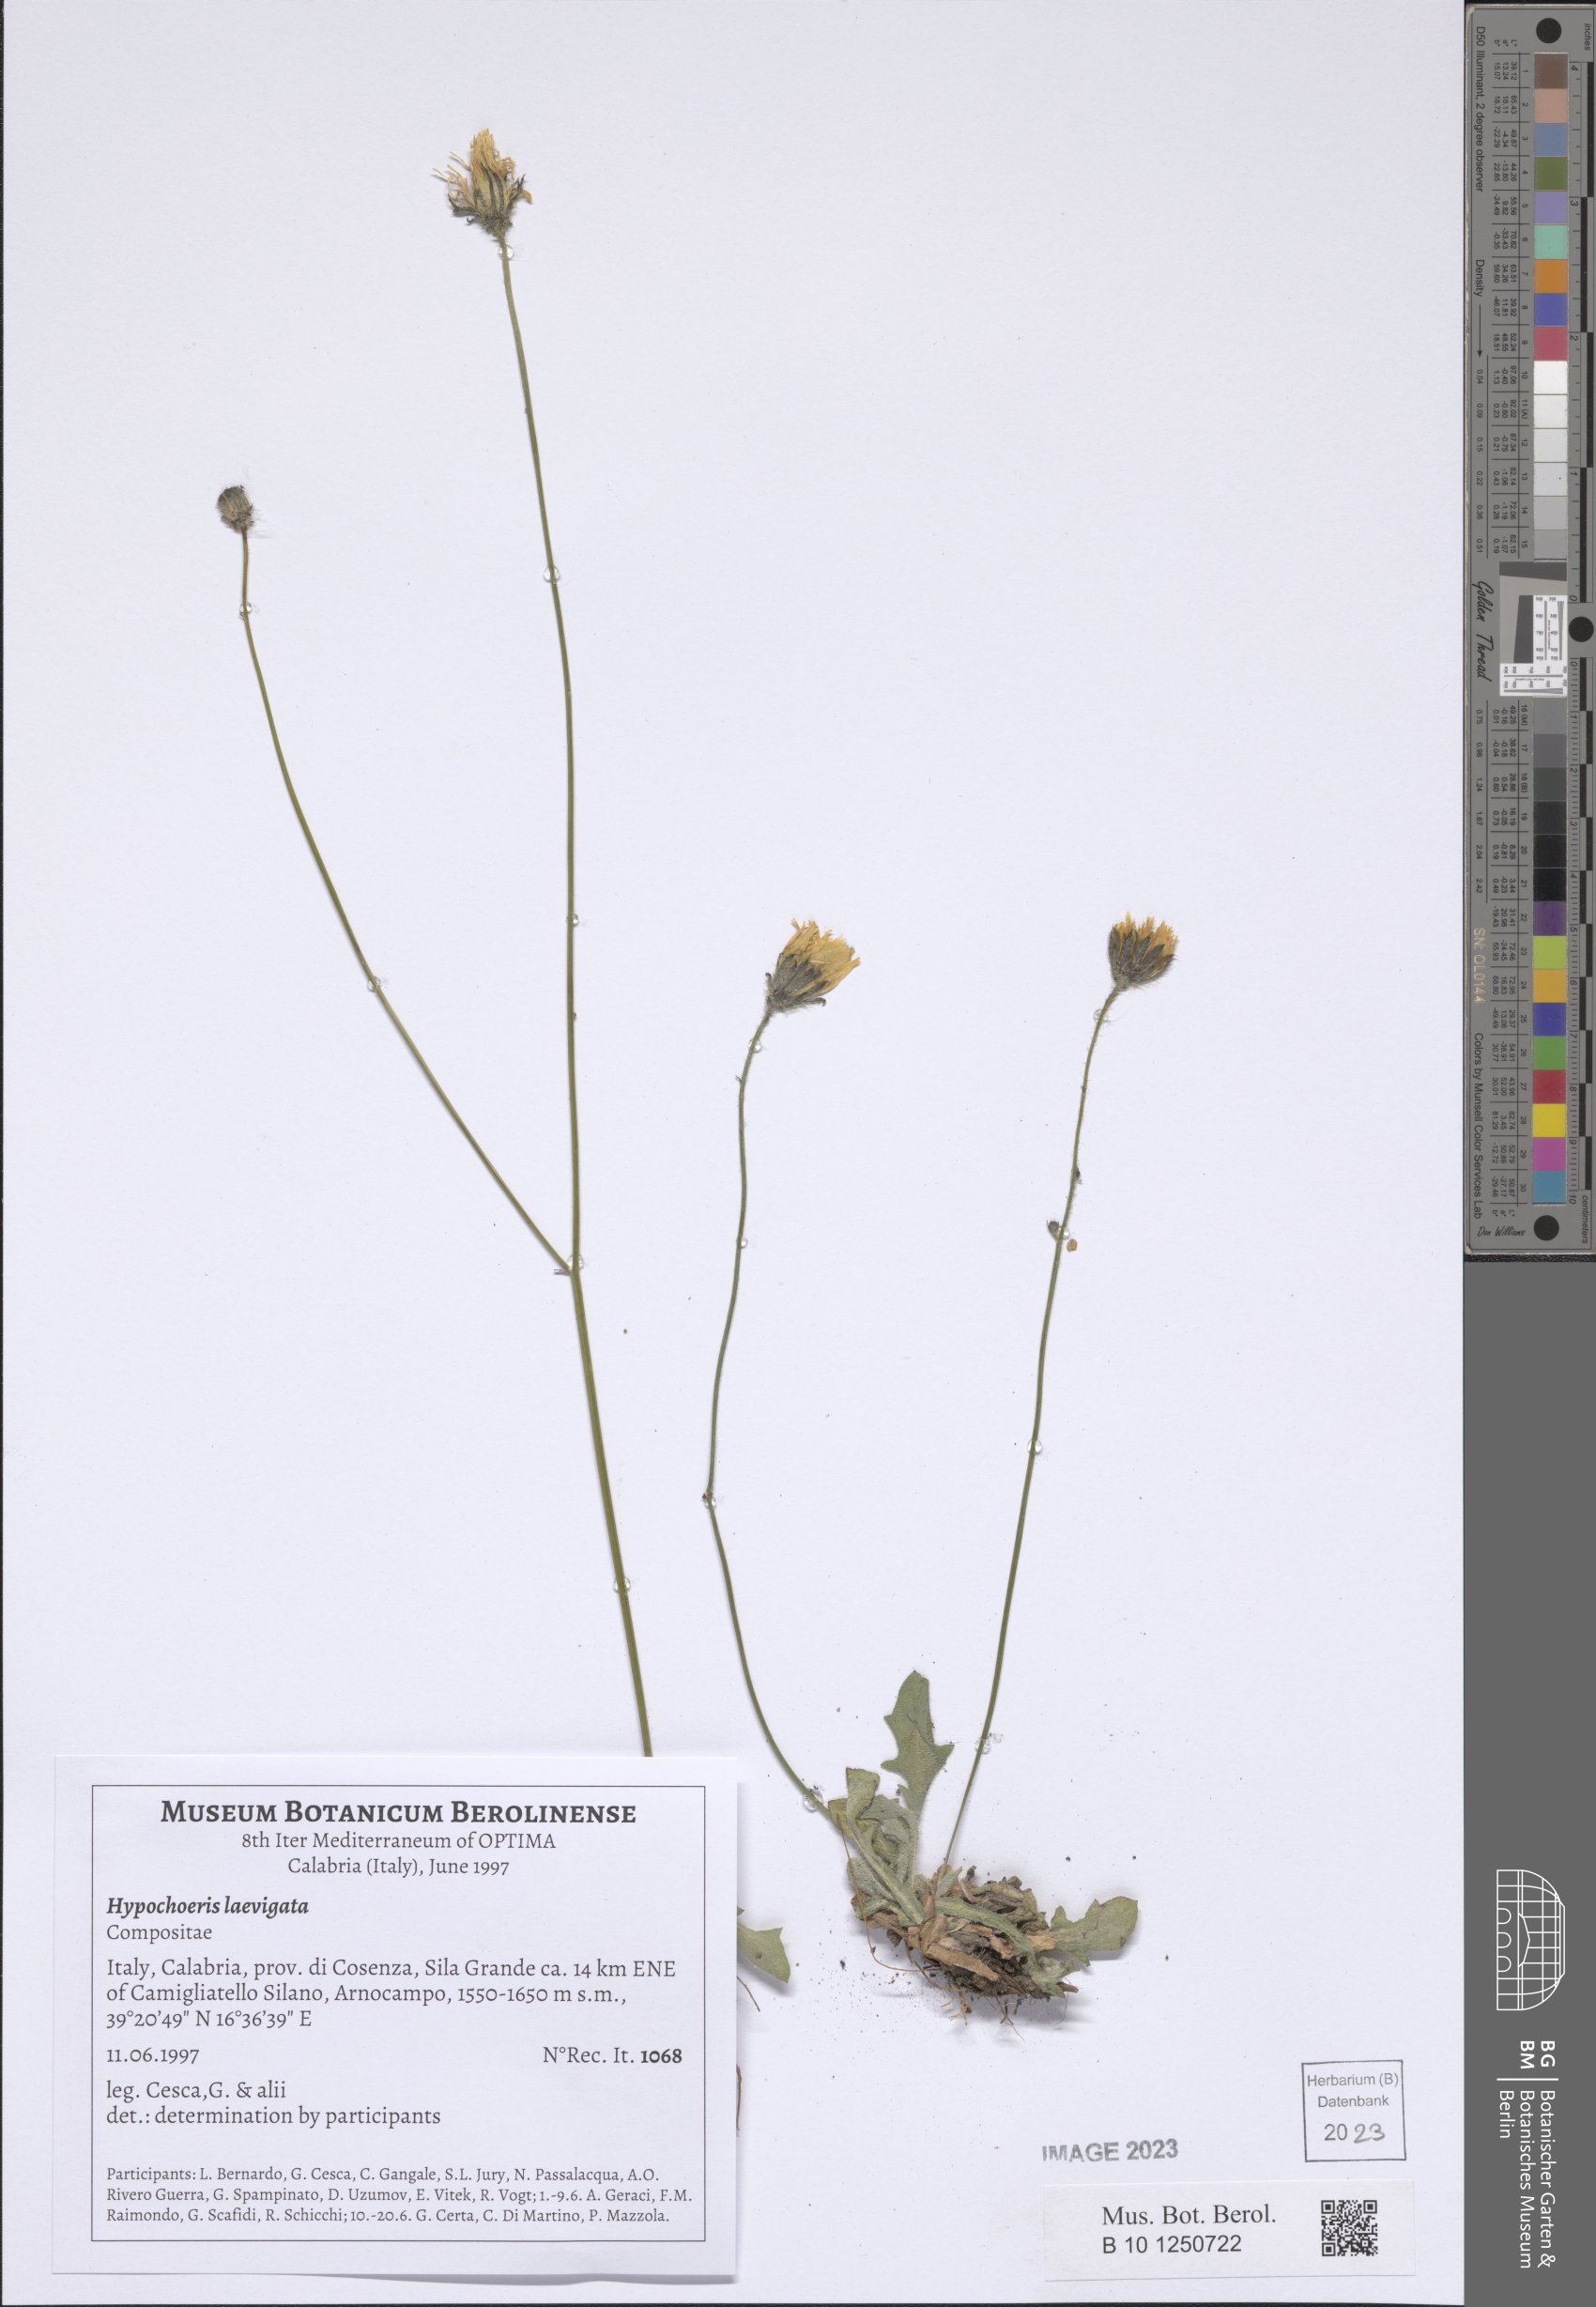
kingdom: Plantae
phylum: Tracheophyta
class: Magnoliopsida
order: Asterales
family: Asteraceae
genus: Achyrophorus
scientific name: Achyrophorus laevigatus
